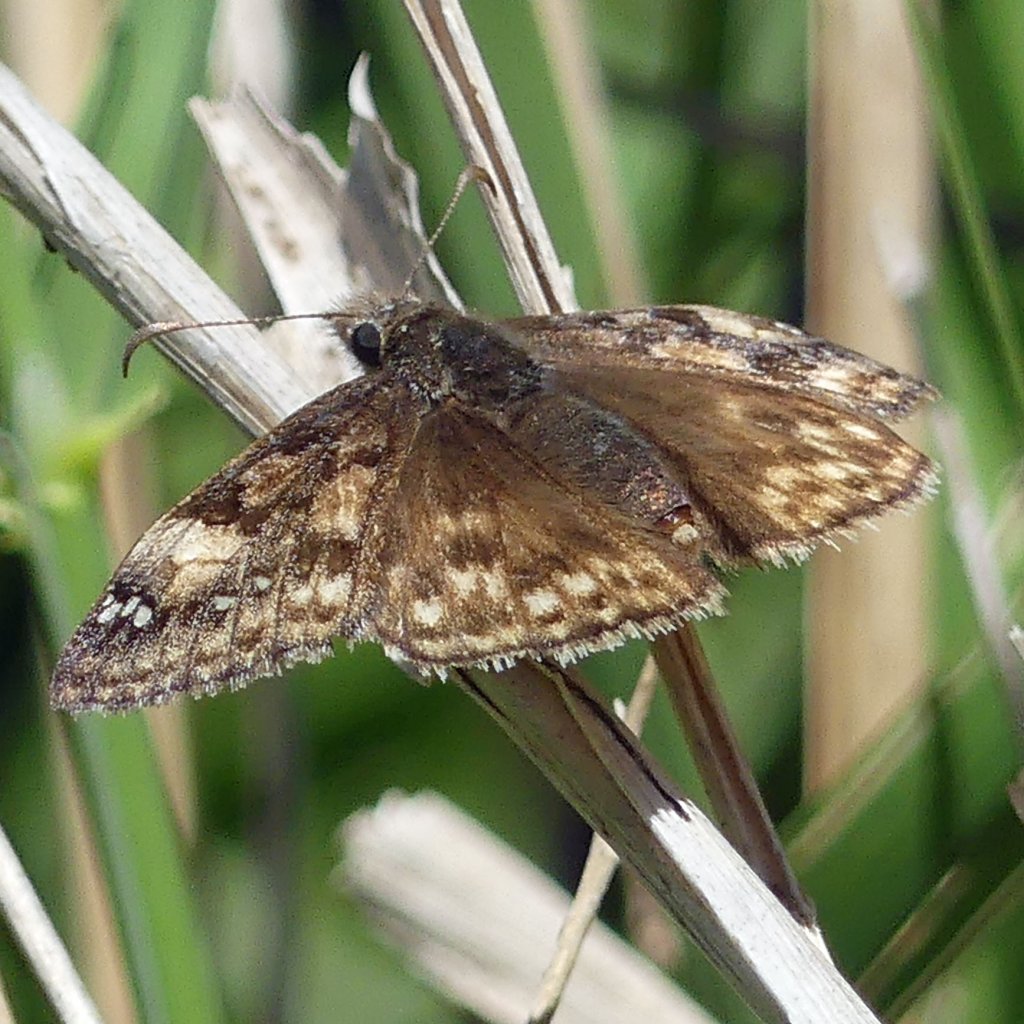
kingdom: Animalia
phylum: Arthropoda
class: Insecta
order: Lepidoptera
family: Hesperiidae
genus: Gesta
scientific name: Gesta
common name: Juvenal's Duskywing
